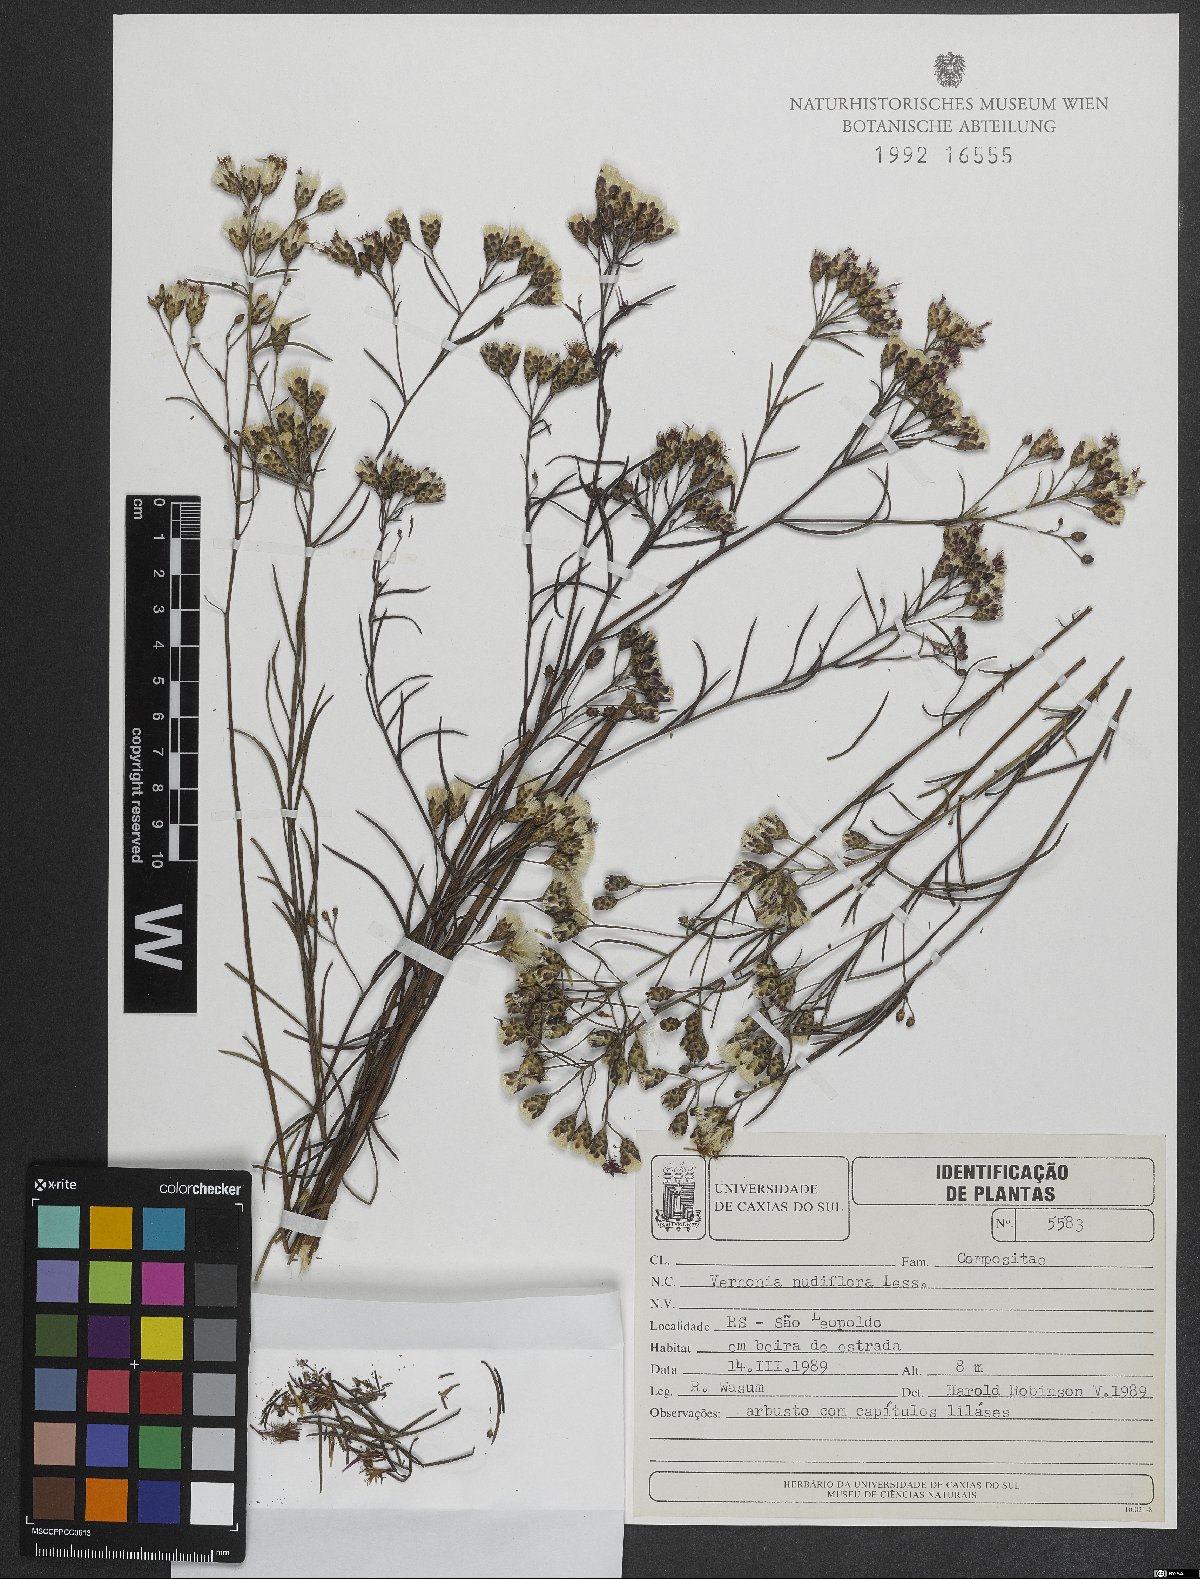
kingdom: Plantae
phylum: Tracheophyta
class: Magnoliopsida
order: Asterales
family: Asteraceae
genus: Vernonanthura
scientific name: Vernonanthura nudiflora
